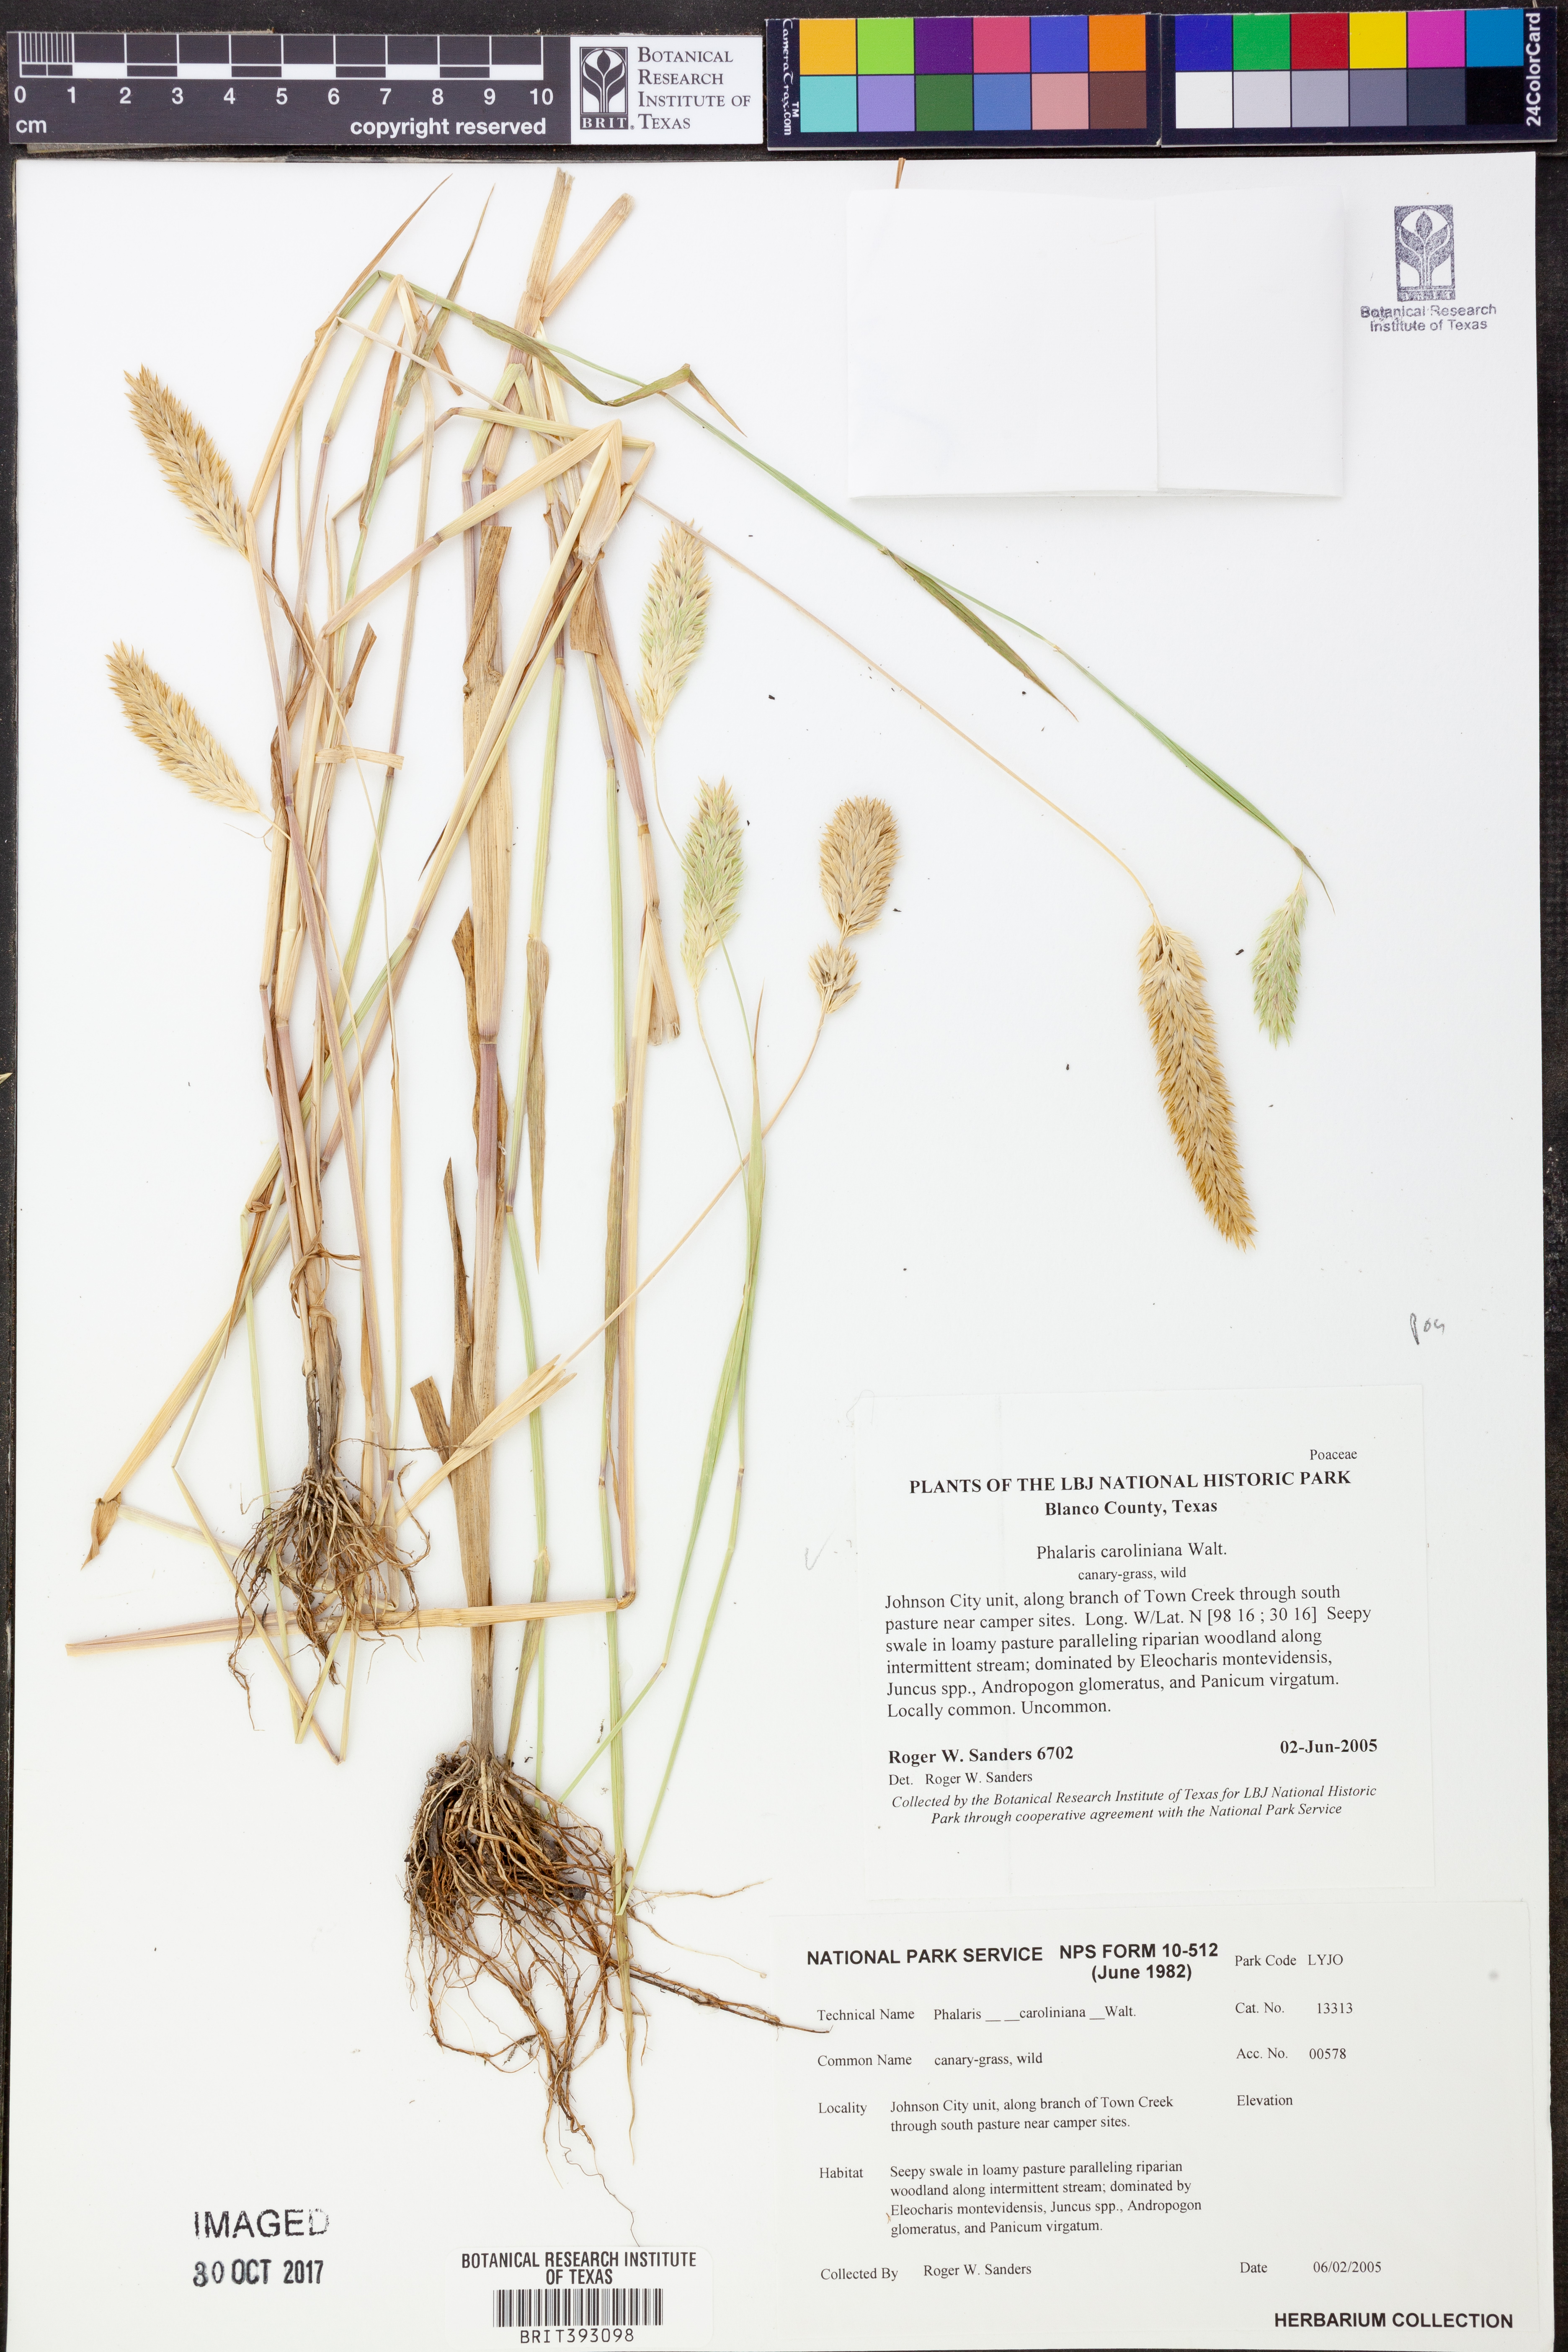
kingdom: Plantae
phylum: Tracheophyta
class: Liliopsida
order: Poales
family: Poaceae
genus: Phalaris
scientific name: Phalaris caroliniana
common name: May grass
